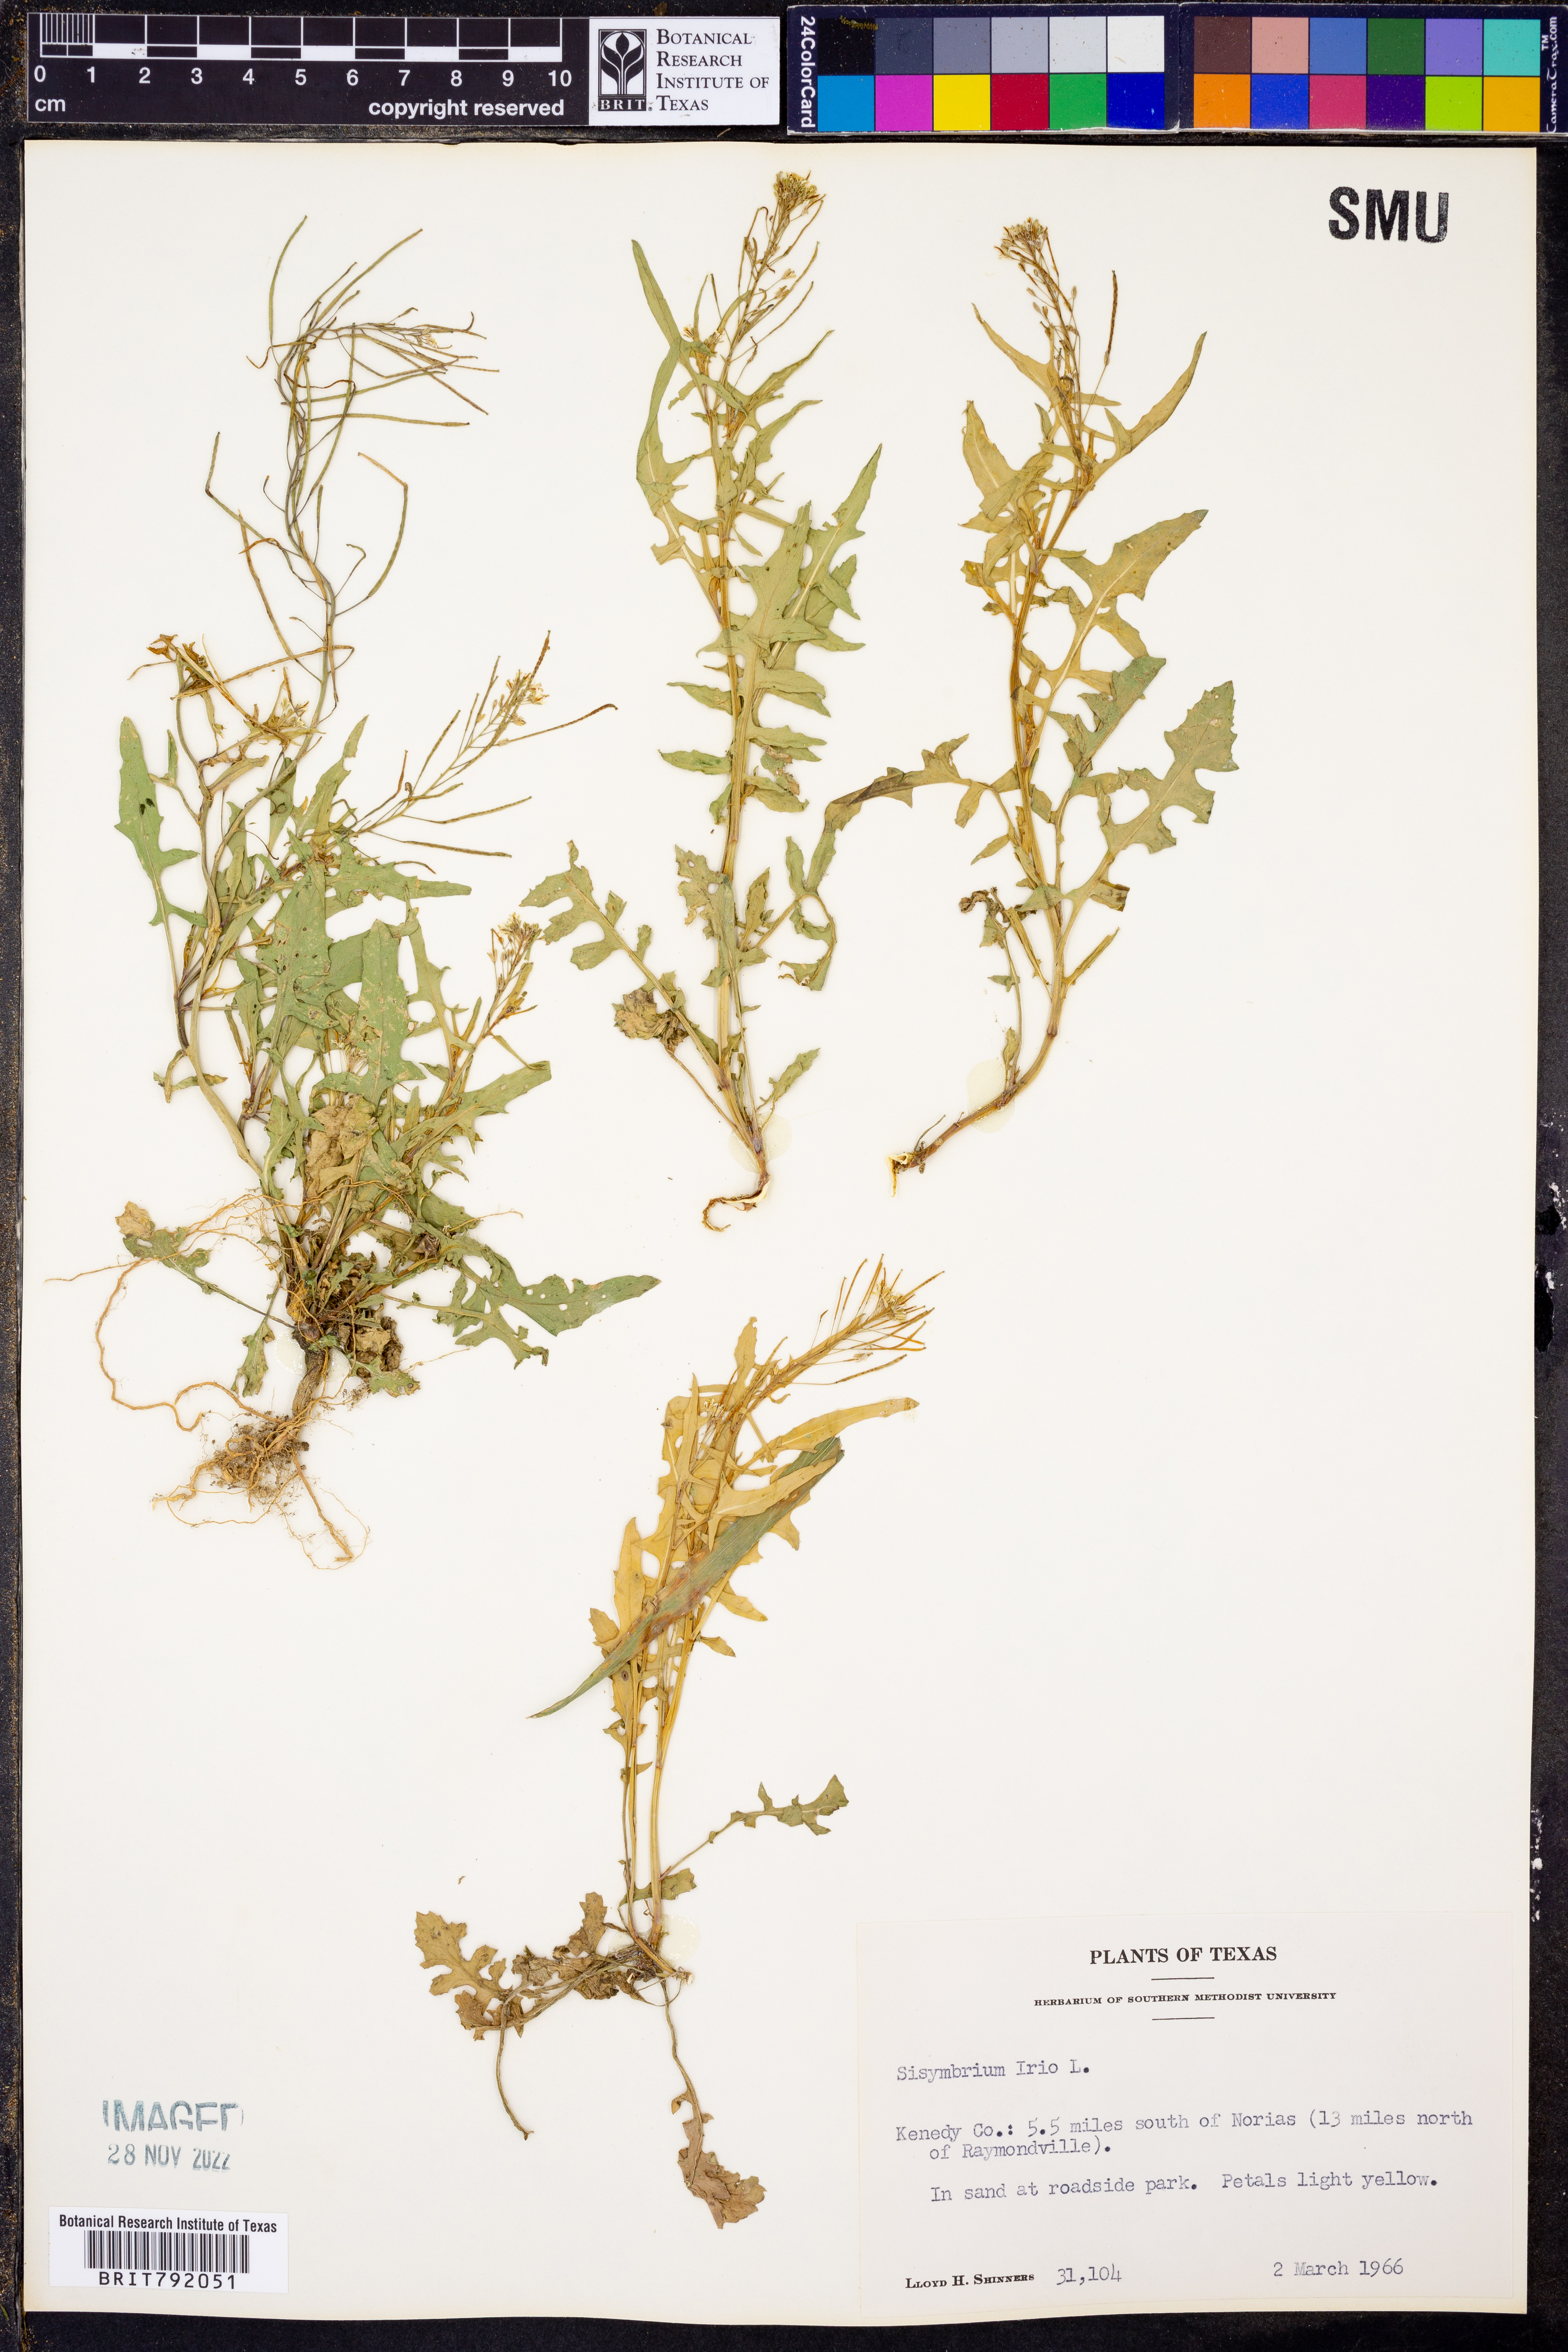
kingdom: Plantae
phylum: Tracheophyta
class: Magnoliopsida
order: Brassicales
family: Brassicaceae
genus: Sisymbrium
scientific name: Sisymbrium irio
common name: London rocket
